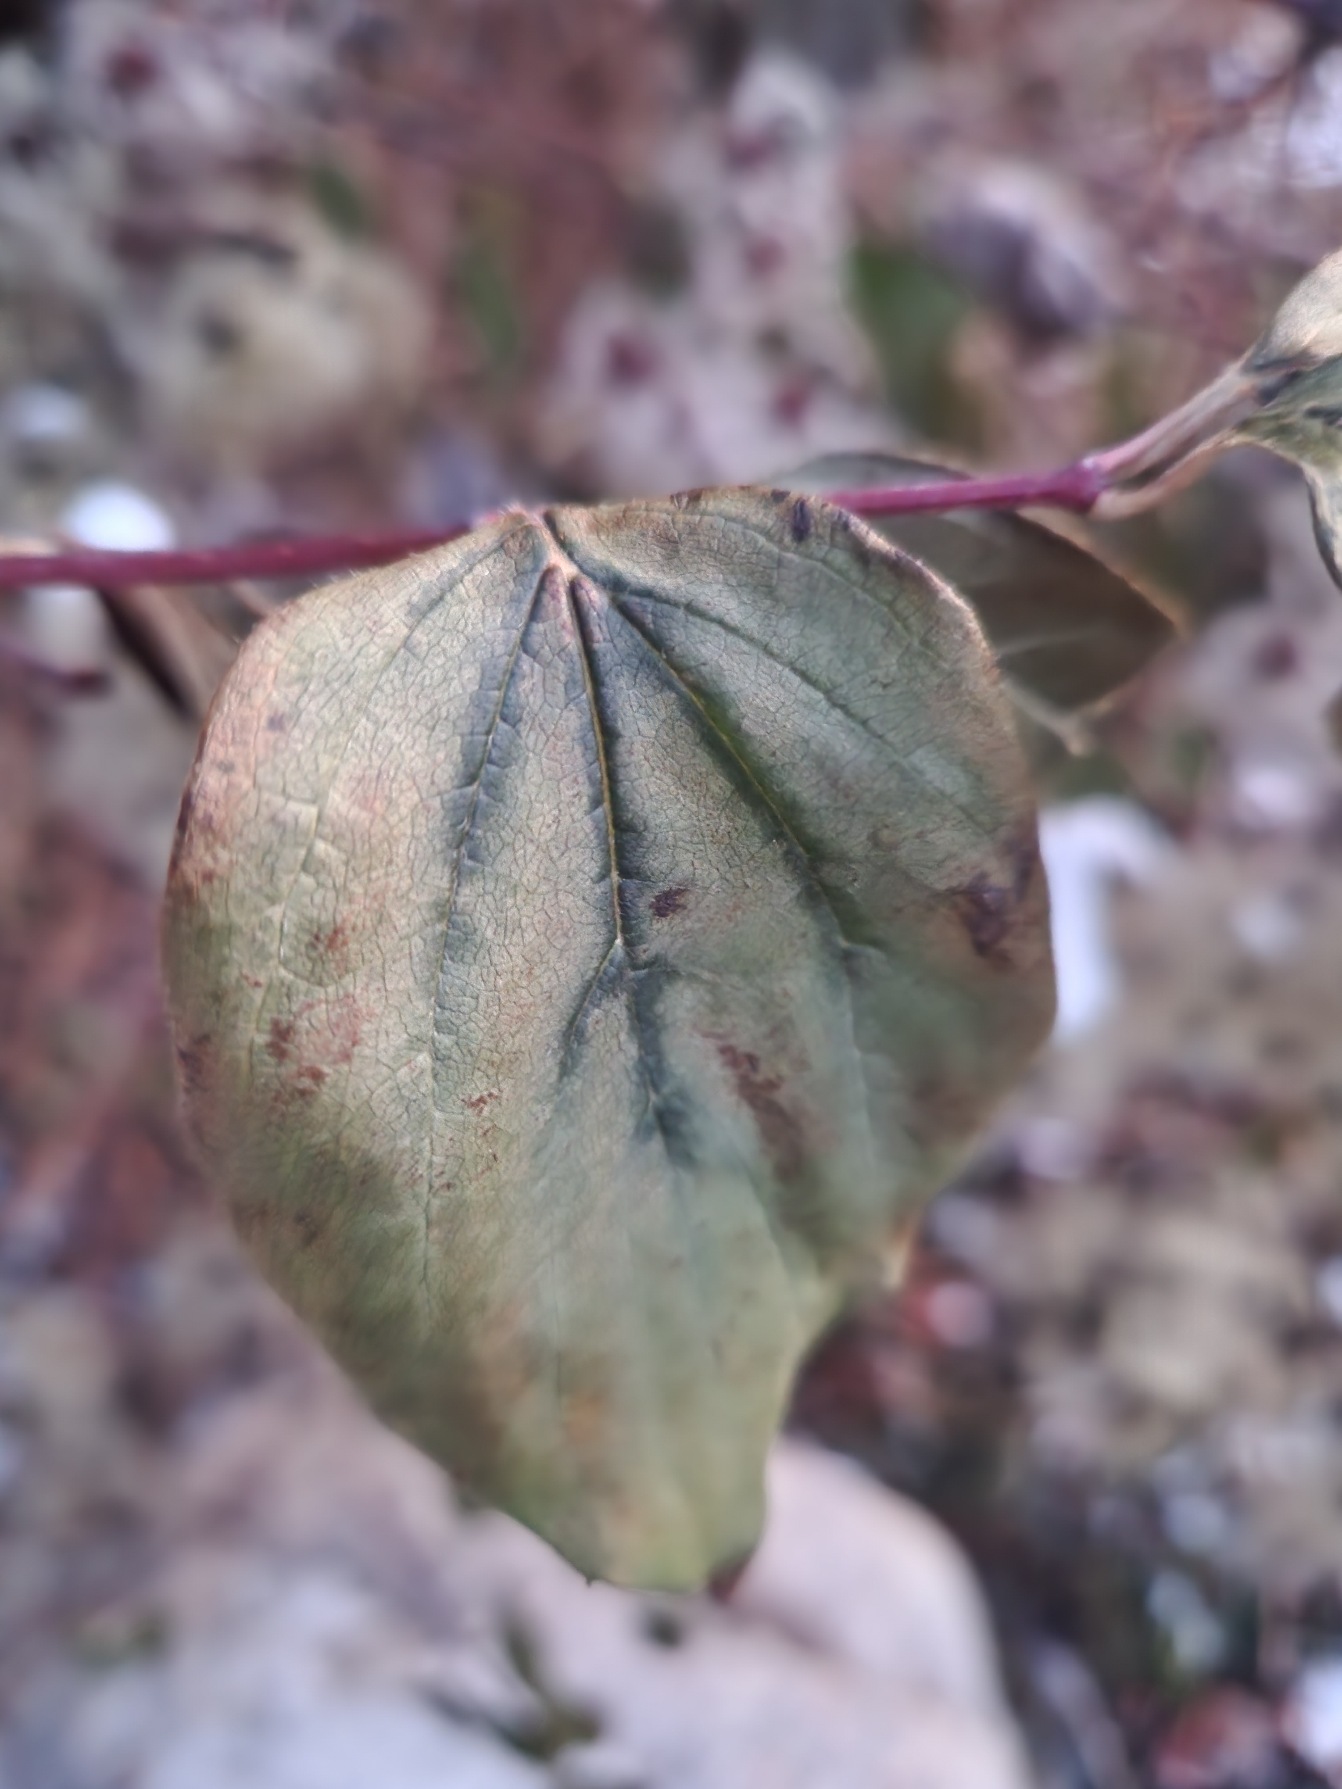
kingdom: Plantae
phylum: Tracheophyta
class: Magnoliopsida
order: Ranunculales
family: Ranunculaceae
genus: Clematis
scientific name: Clematis vitalba
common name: Skovranke
